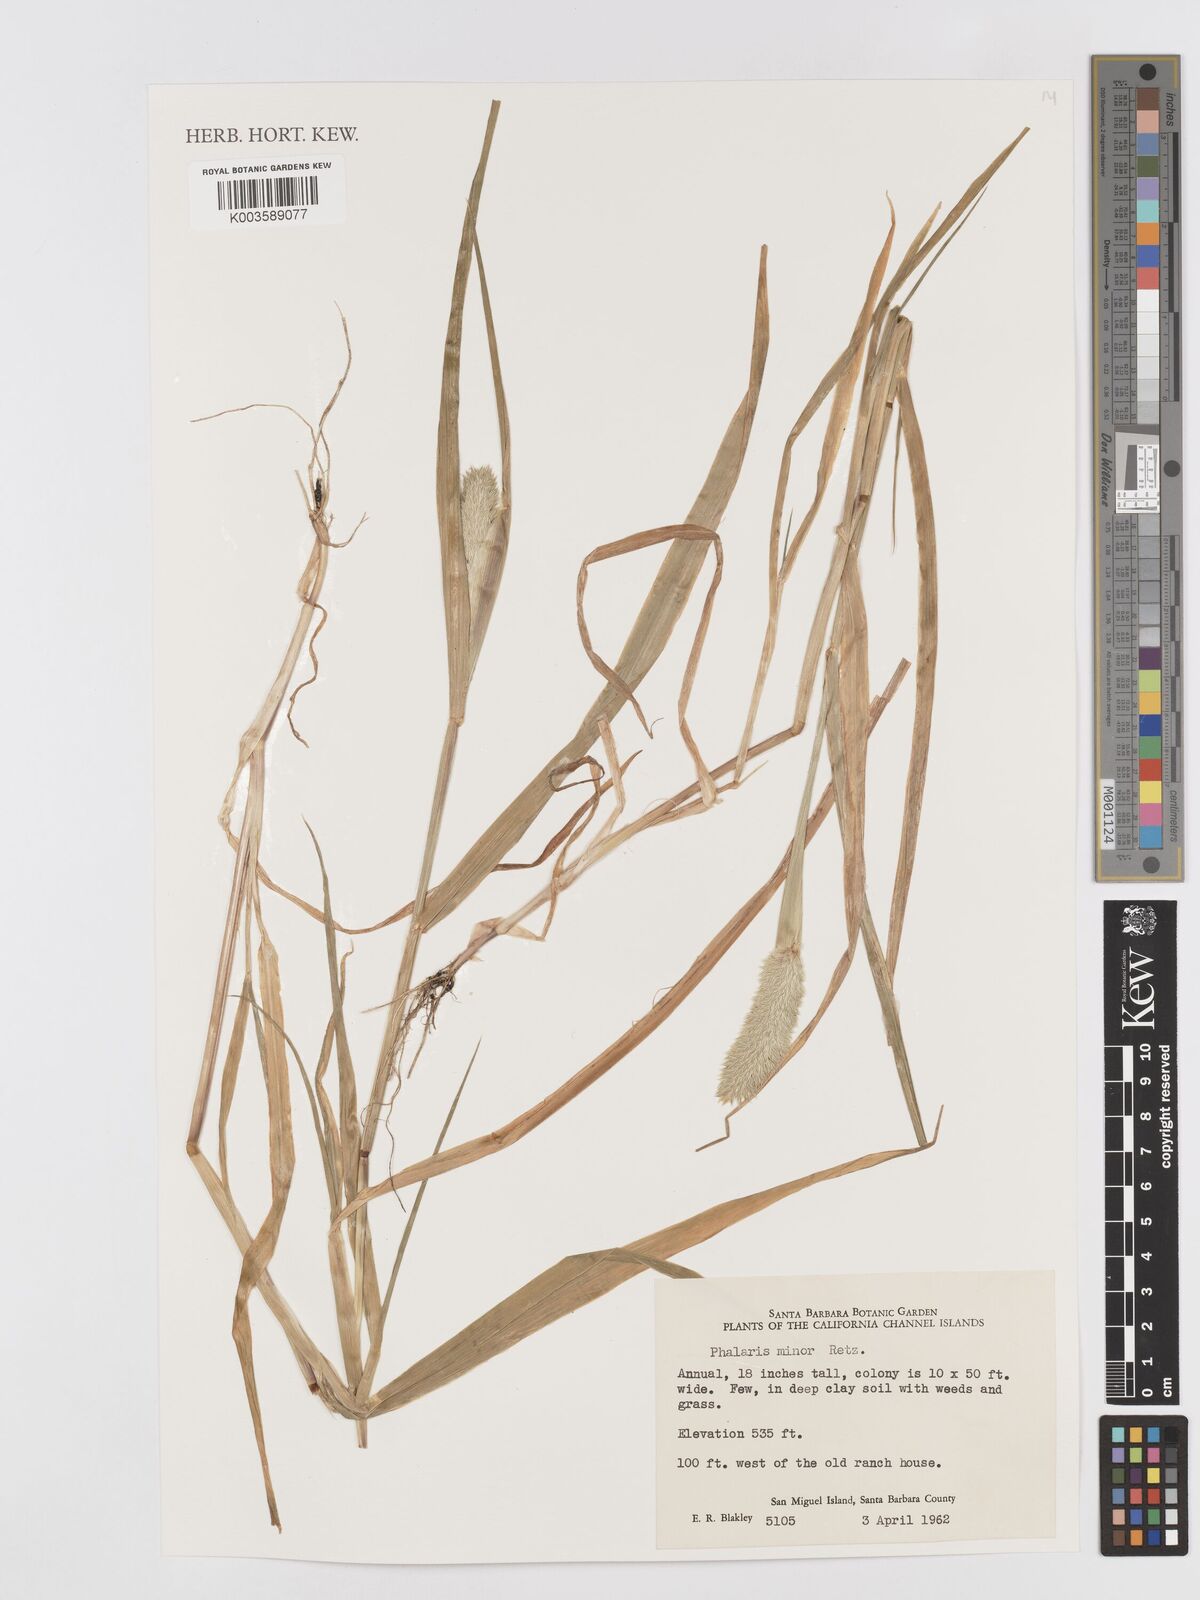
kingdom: Plantae
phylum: Tracheophyta
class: Liliopsida
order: Poales
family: Poaceae
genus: Phalaris
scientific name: Phalaris minor
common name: Littleseed canarygrass
